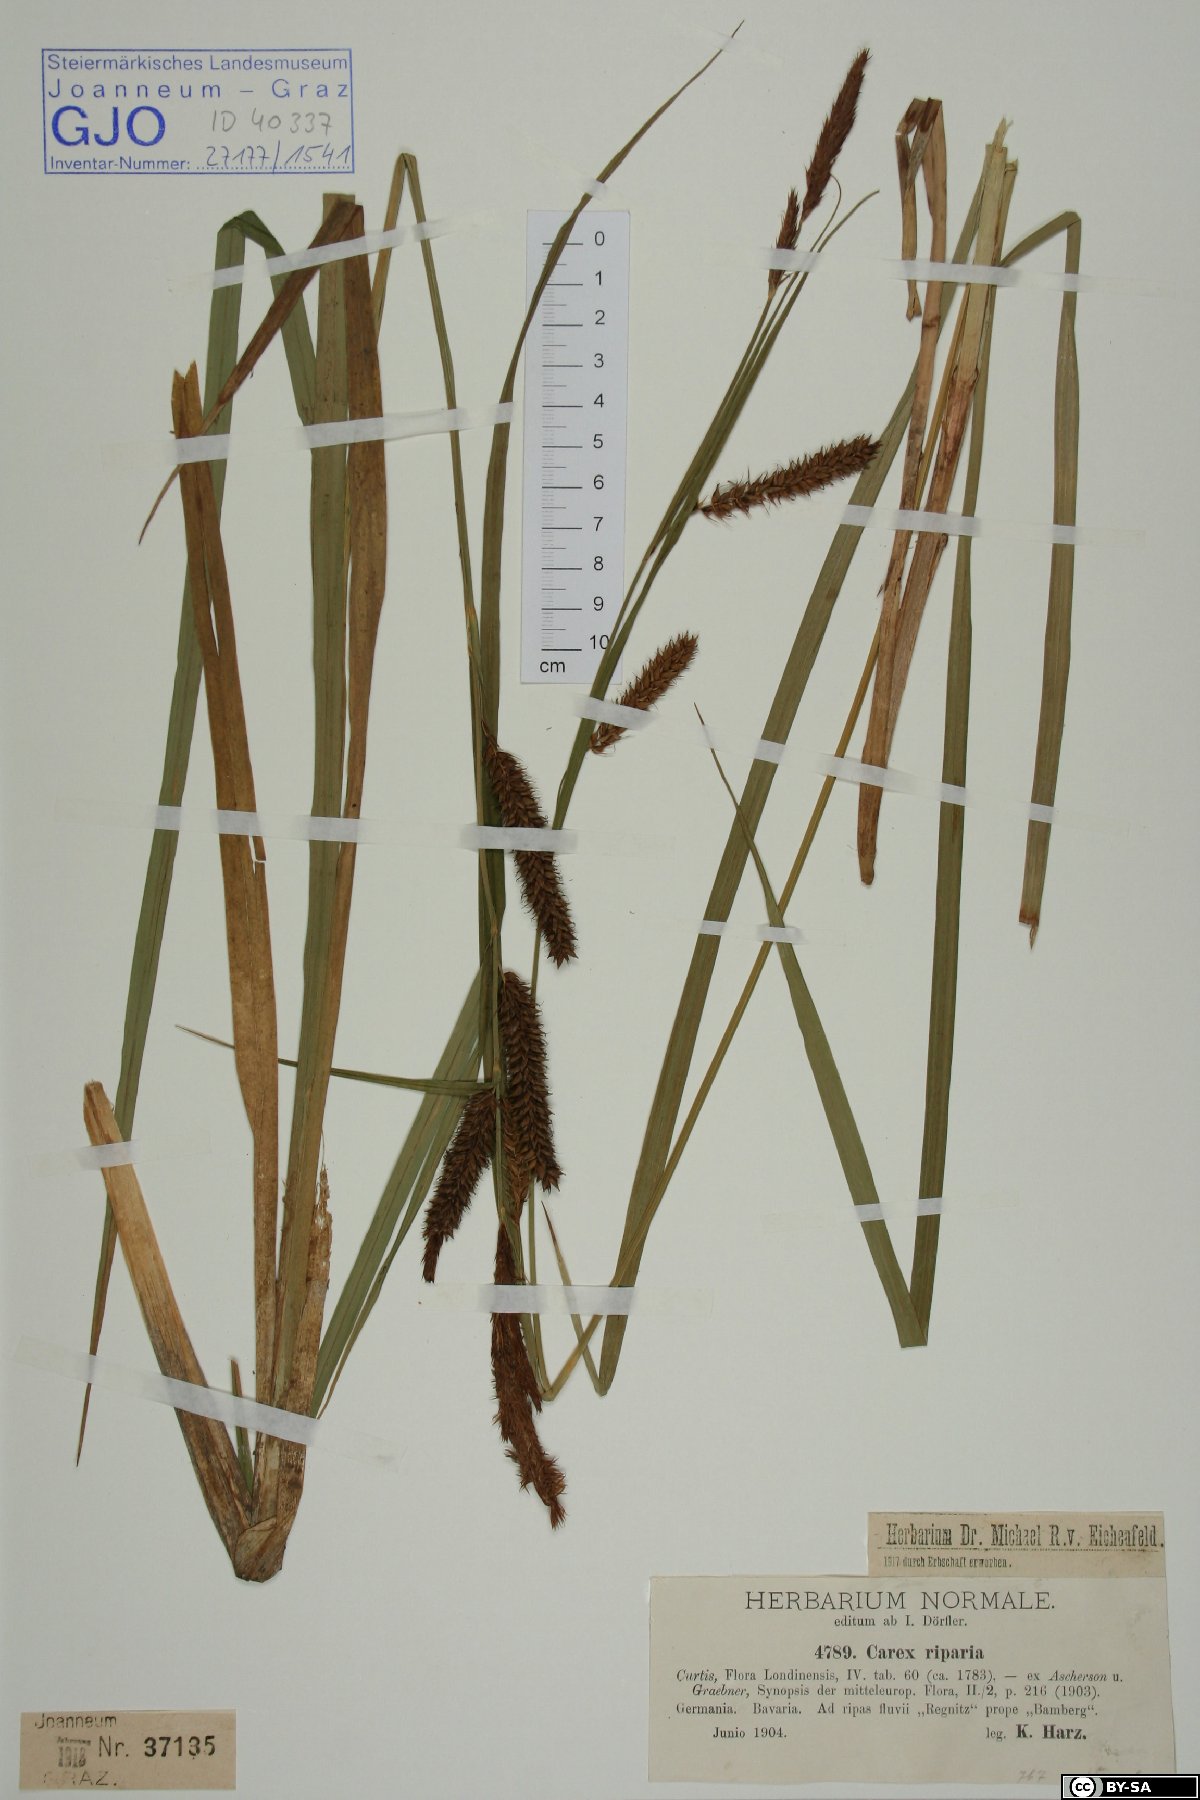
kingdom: Plantae
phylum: Tracheophyta
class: Liliopsida
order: Poales
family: Cyperaceae
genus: Carex
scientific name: Carex riparia
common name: Greater pond-sedge
